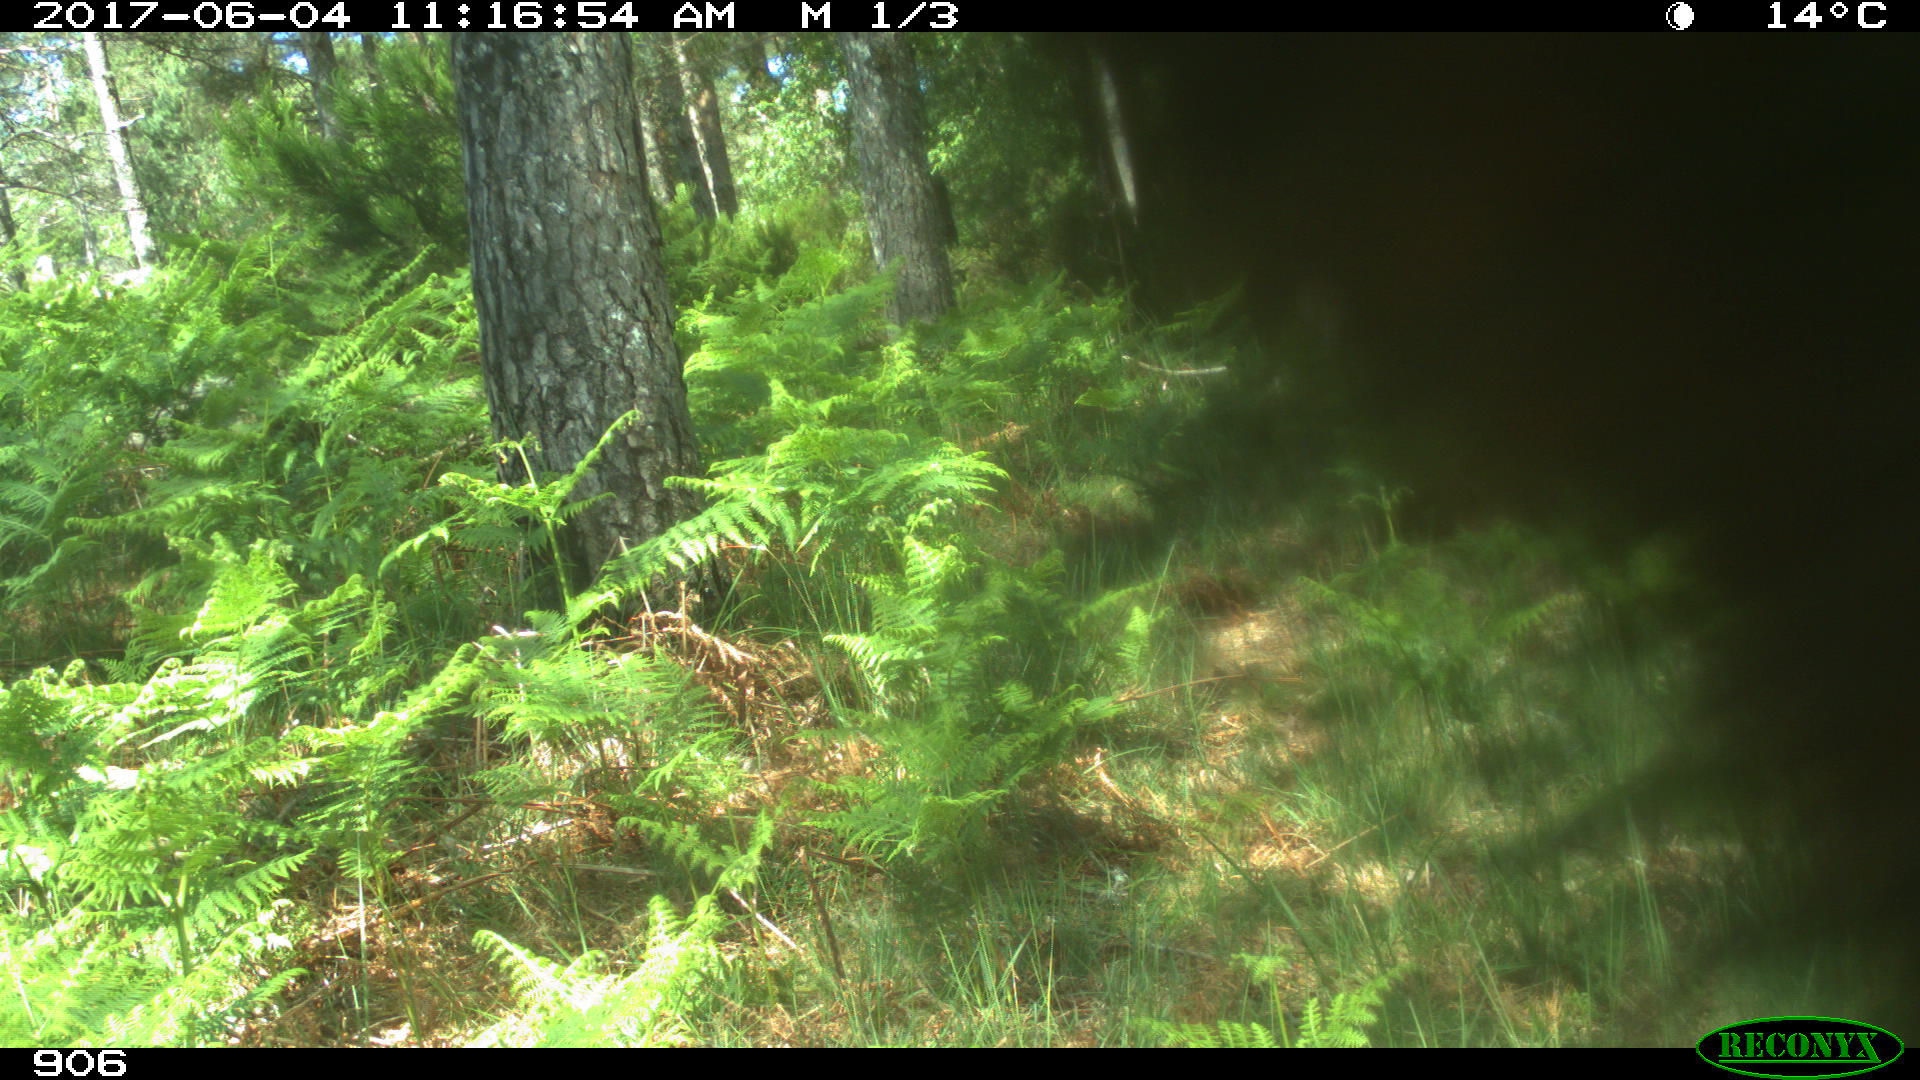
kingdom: Animalia
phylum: Chordata
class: Mammalia
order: Perissodactyla
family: Equidae
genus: Equus
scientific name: Equus caballus
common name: Horse
